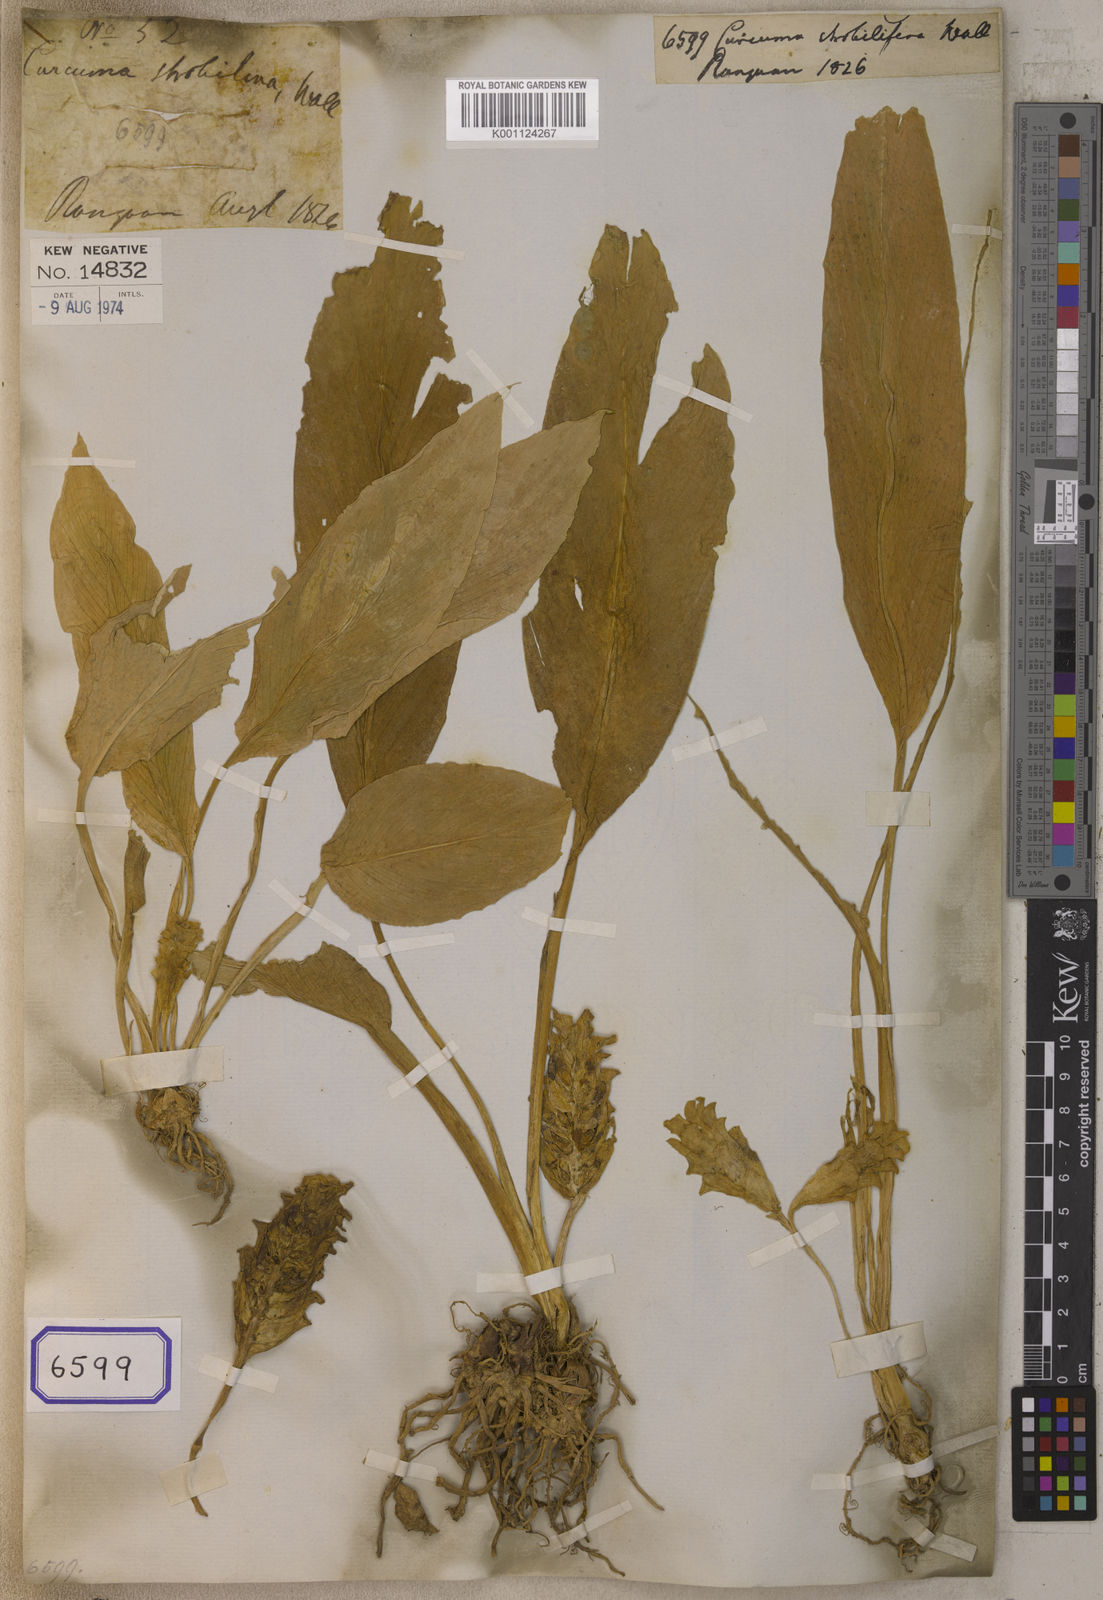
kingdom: Plantae
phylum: Tracheophyta
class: Liliopsida
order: Zingiberales
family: Zingiberaceae
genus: Curcuma
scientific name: Curcuma
